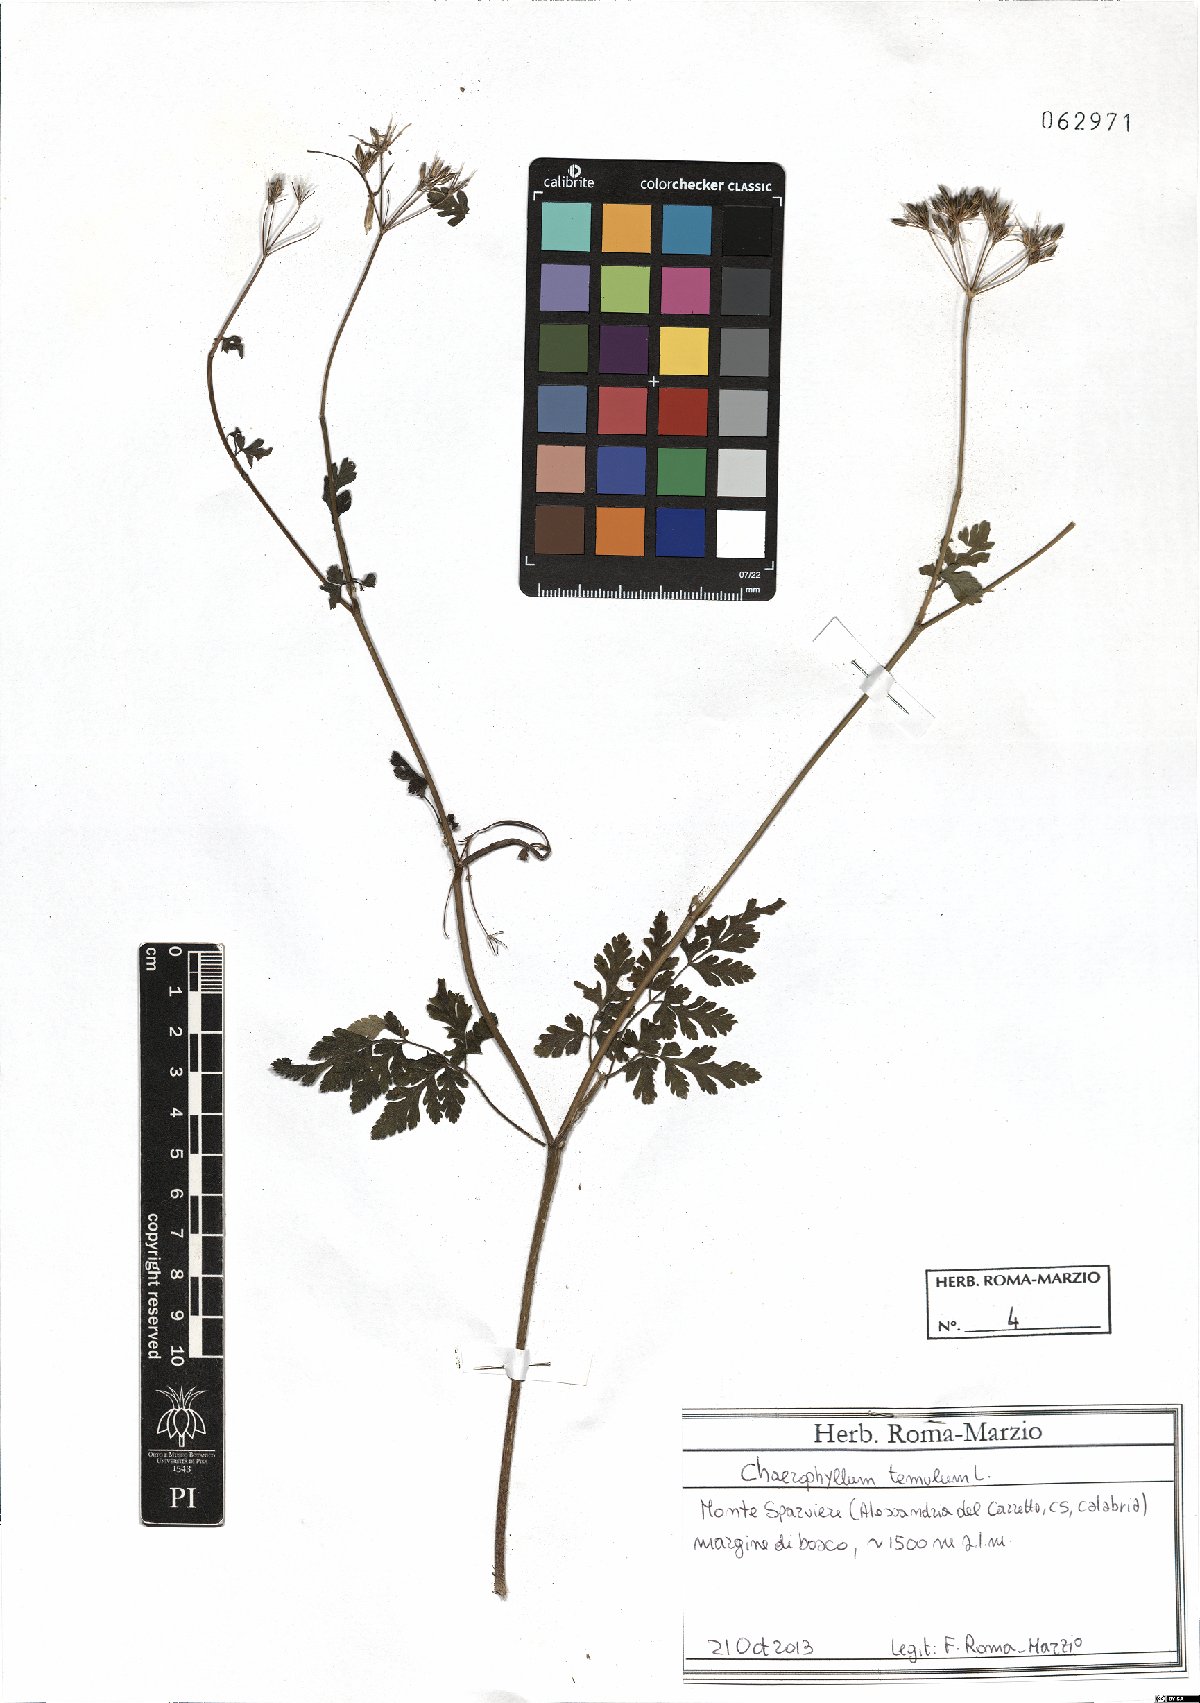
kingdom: Plantae
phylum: Tracheophyta
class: Magnoliopsida
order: Apiales
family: Apiaceae
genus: Chaerophyllum
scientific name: Chaerophyllum temulum
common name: Rough chervil
